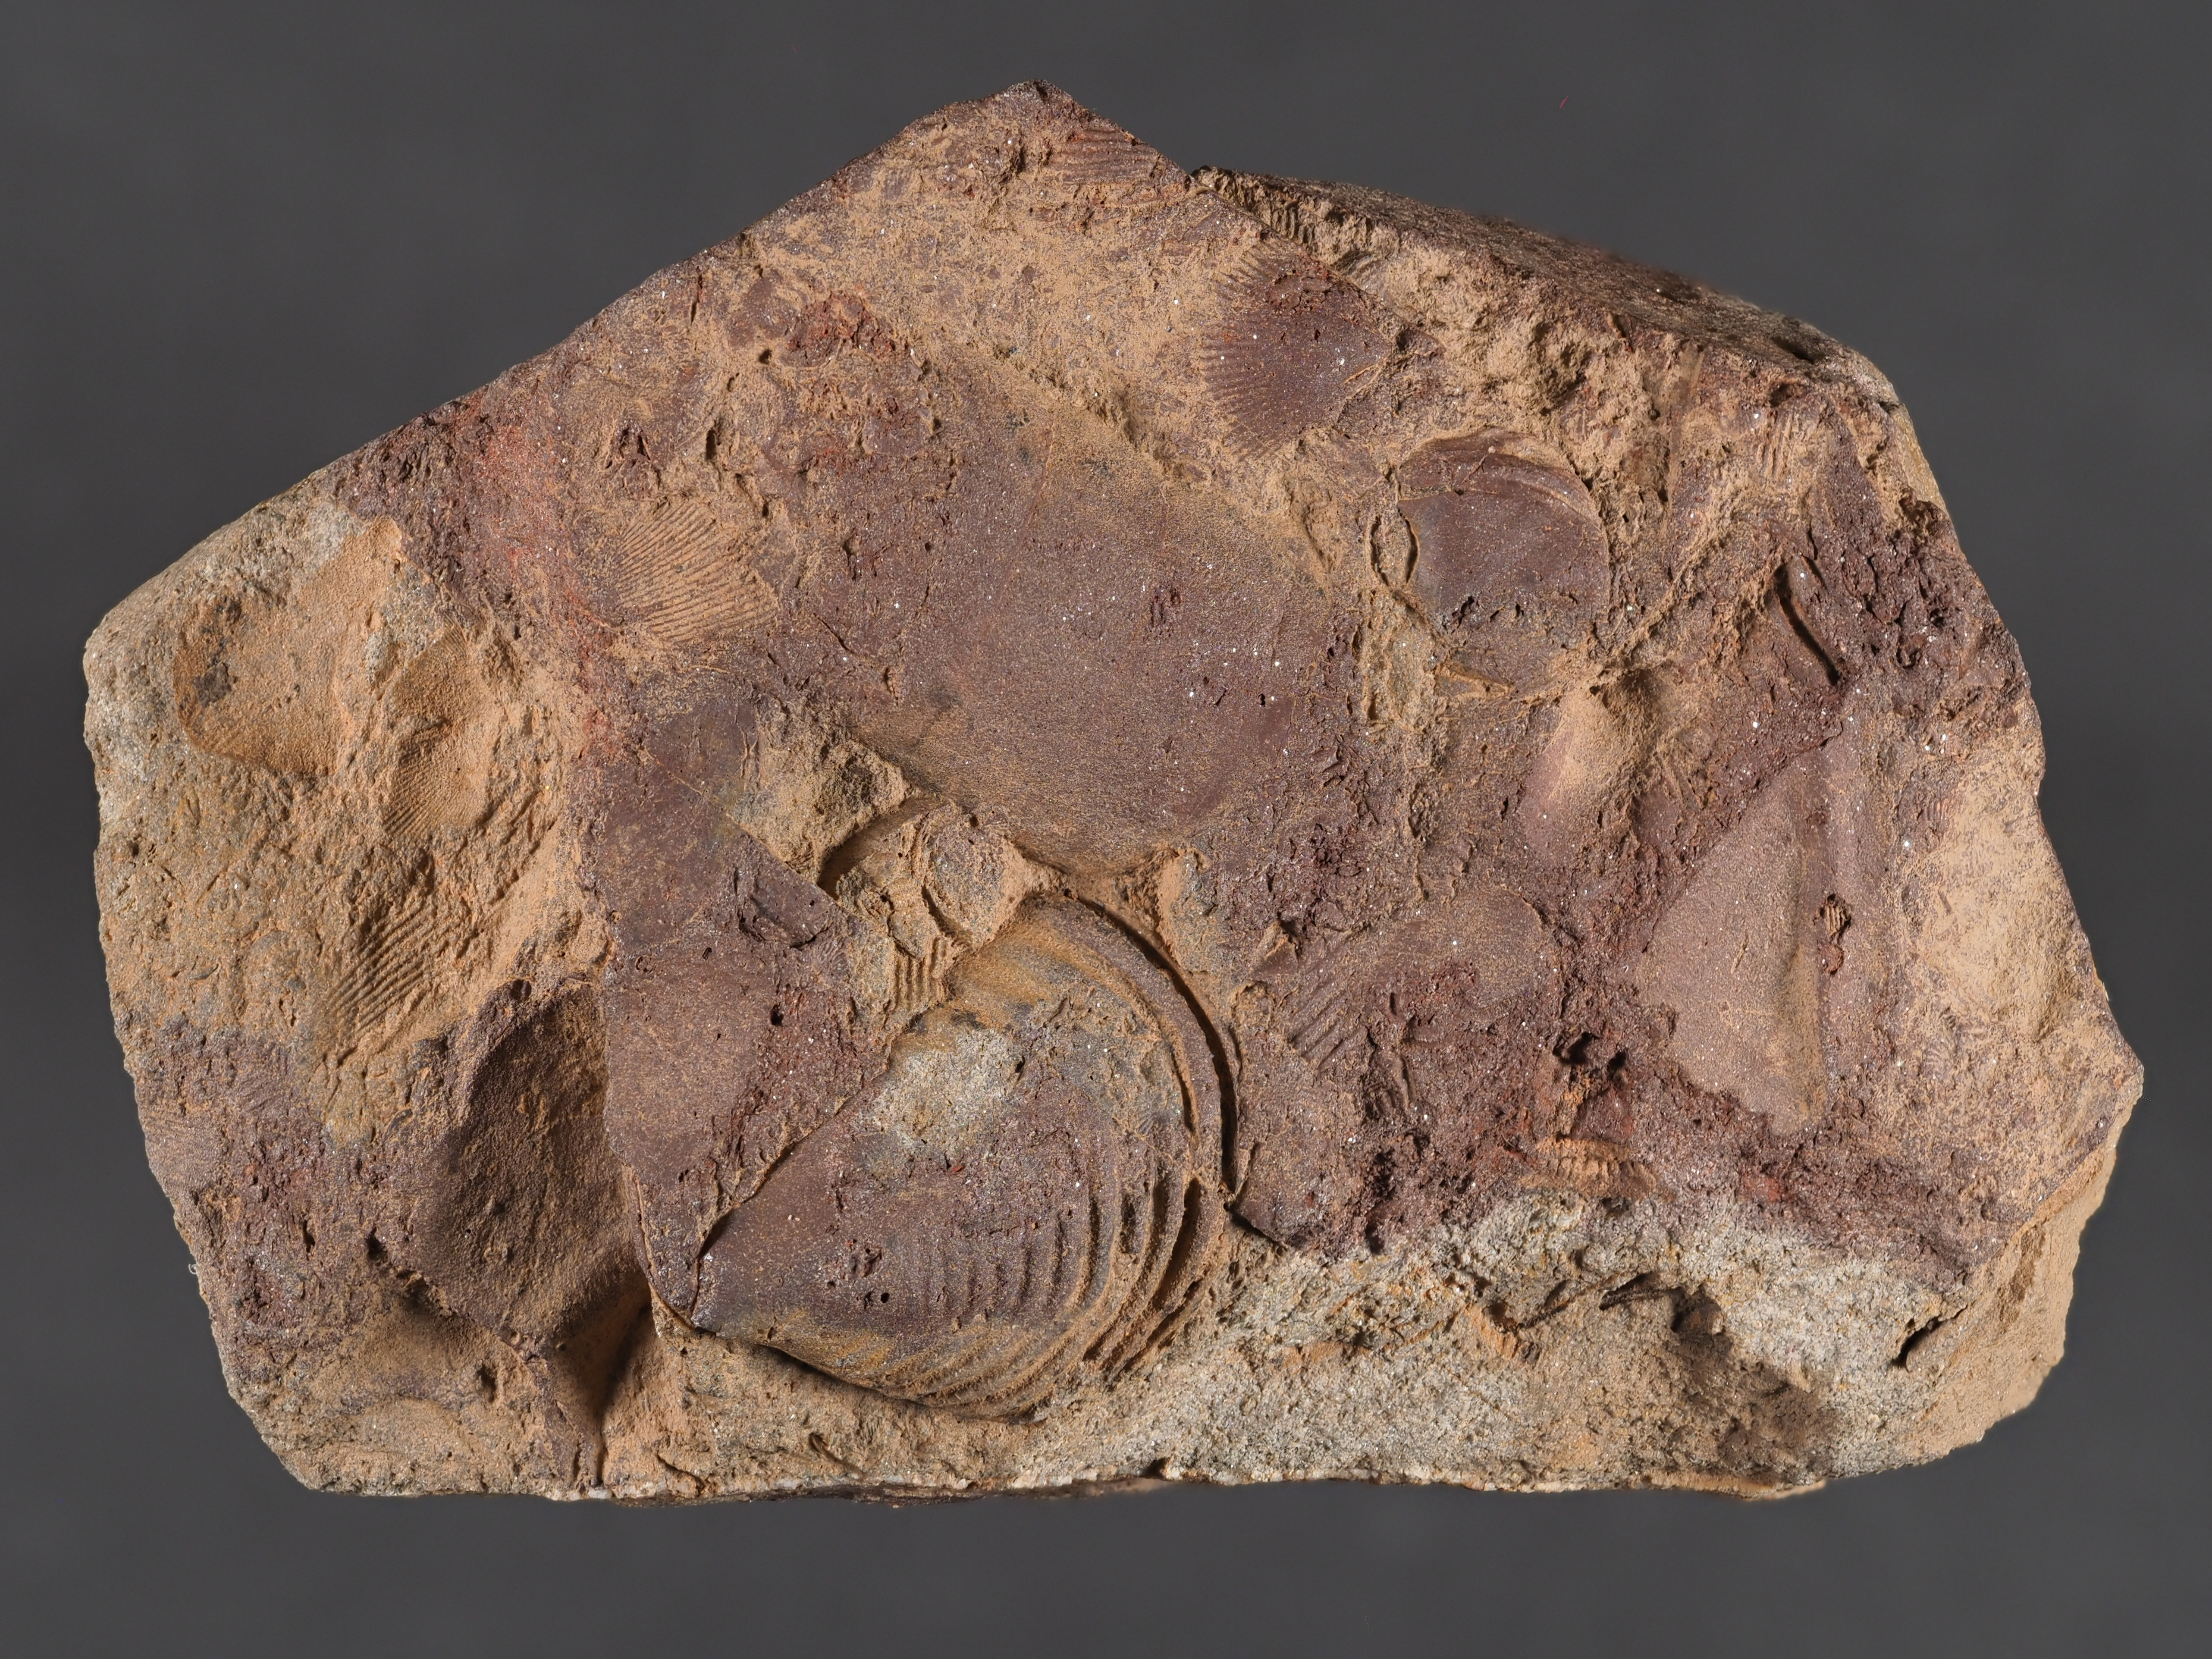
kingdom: Animalia
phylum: Arthropoda
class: Trilobita
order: Phacopida
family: Homalonotidae
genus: Digonus
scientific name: Digonus
